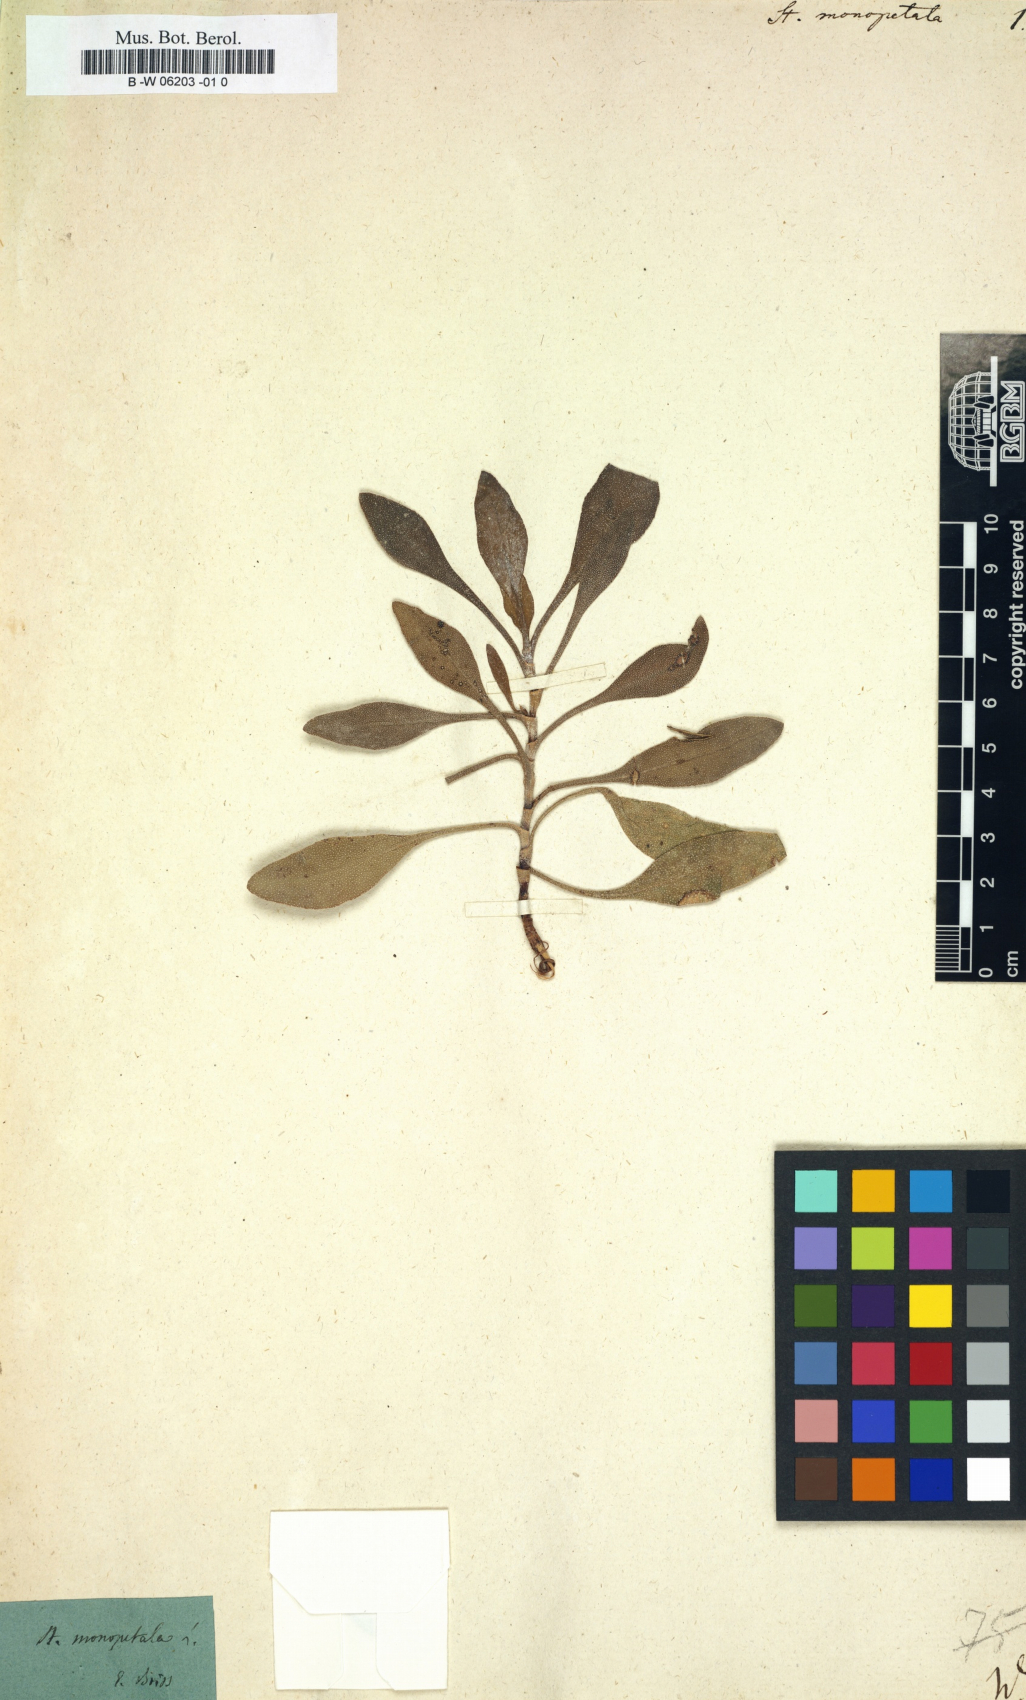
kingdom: Plantae
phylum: Tracheophyta
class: Magnoliopsida
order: Caryophyllales
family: Plumbaginaceae
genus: Limoniastrum
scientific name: Limoniastrum monopetalum
